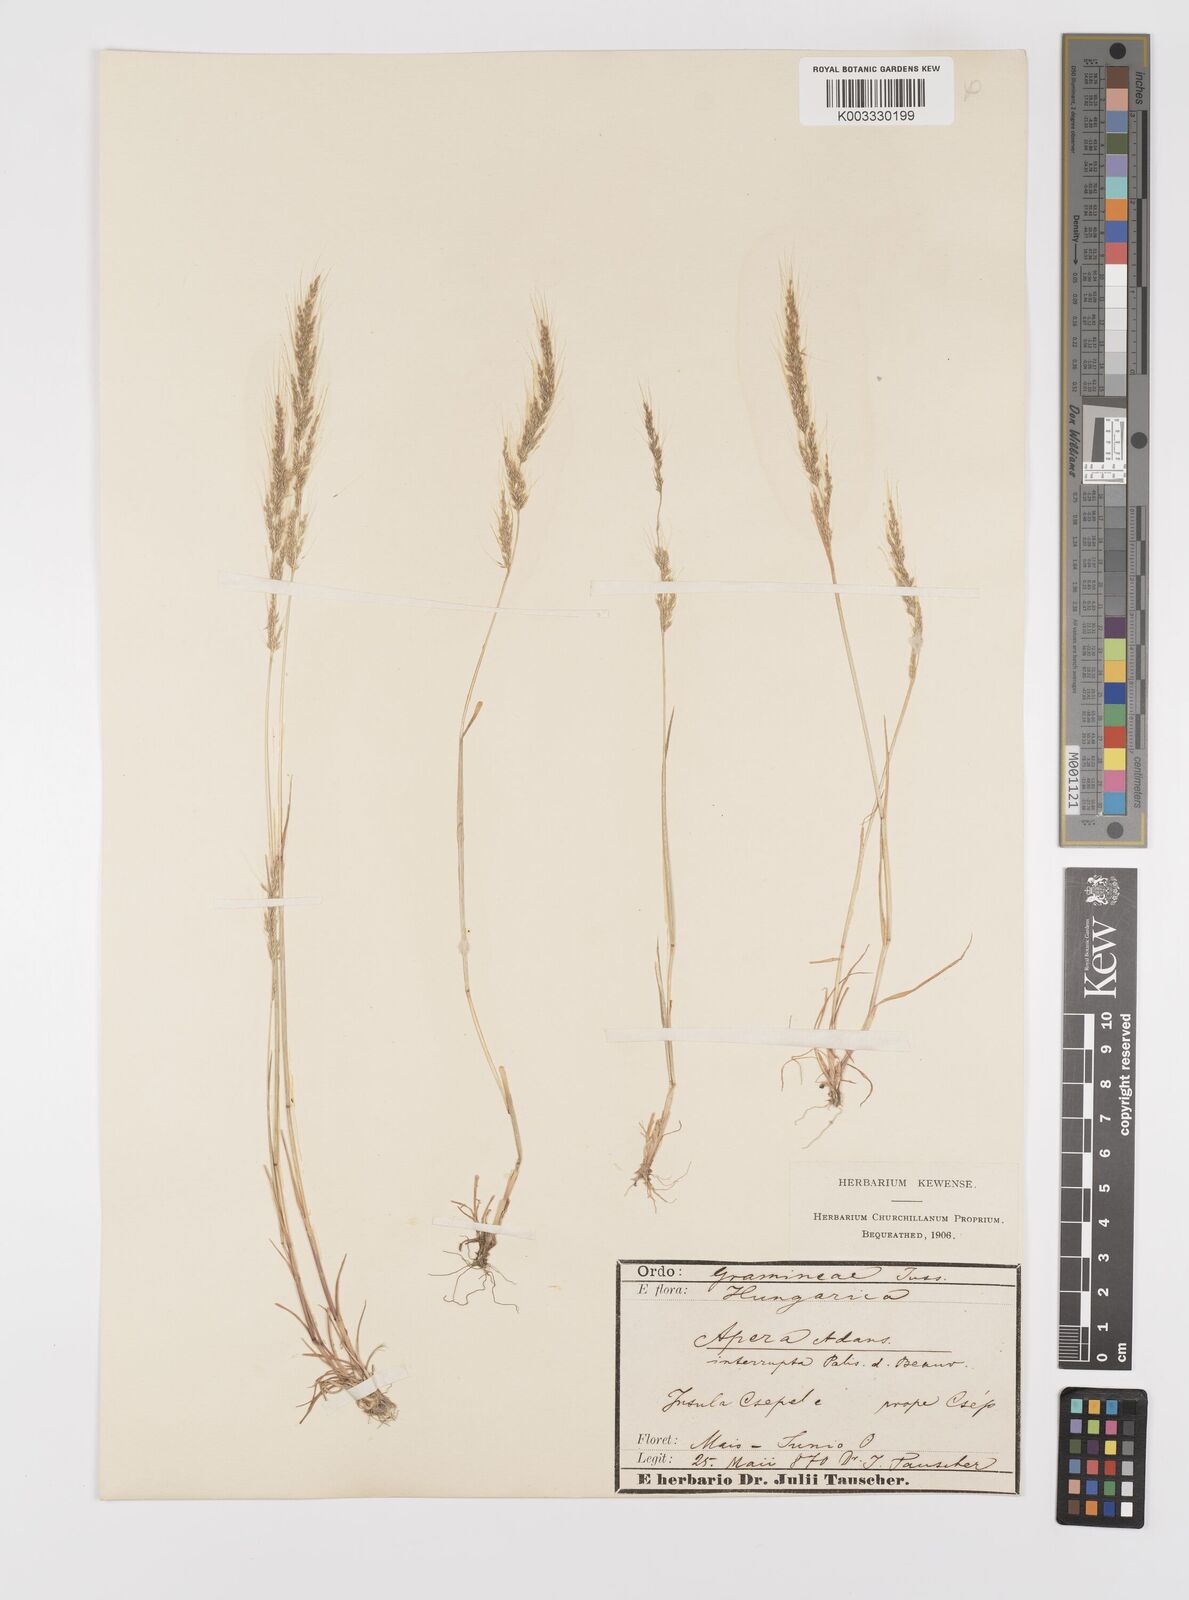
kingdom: Plantae
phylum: Tracheophyta
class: Liliopsida
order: Poales
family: Poaceae
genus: Apera
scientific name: Apera interrupta
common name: Dense silky-bent
